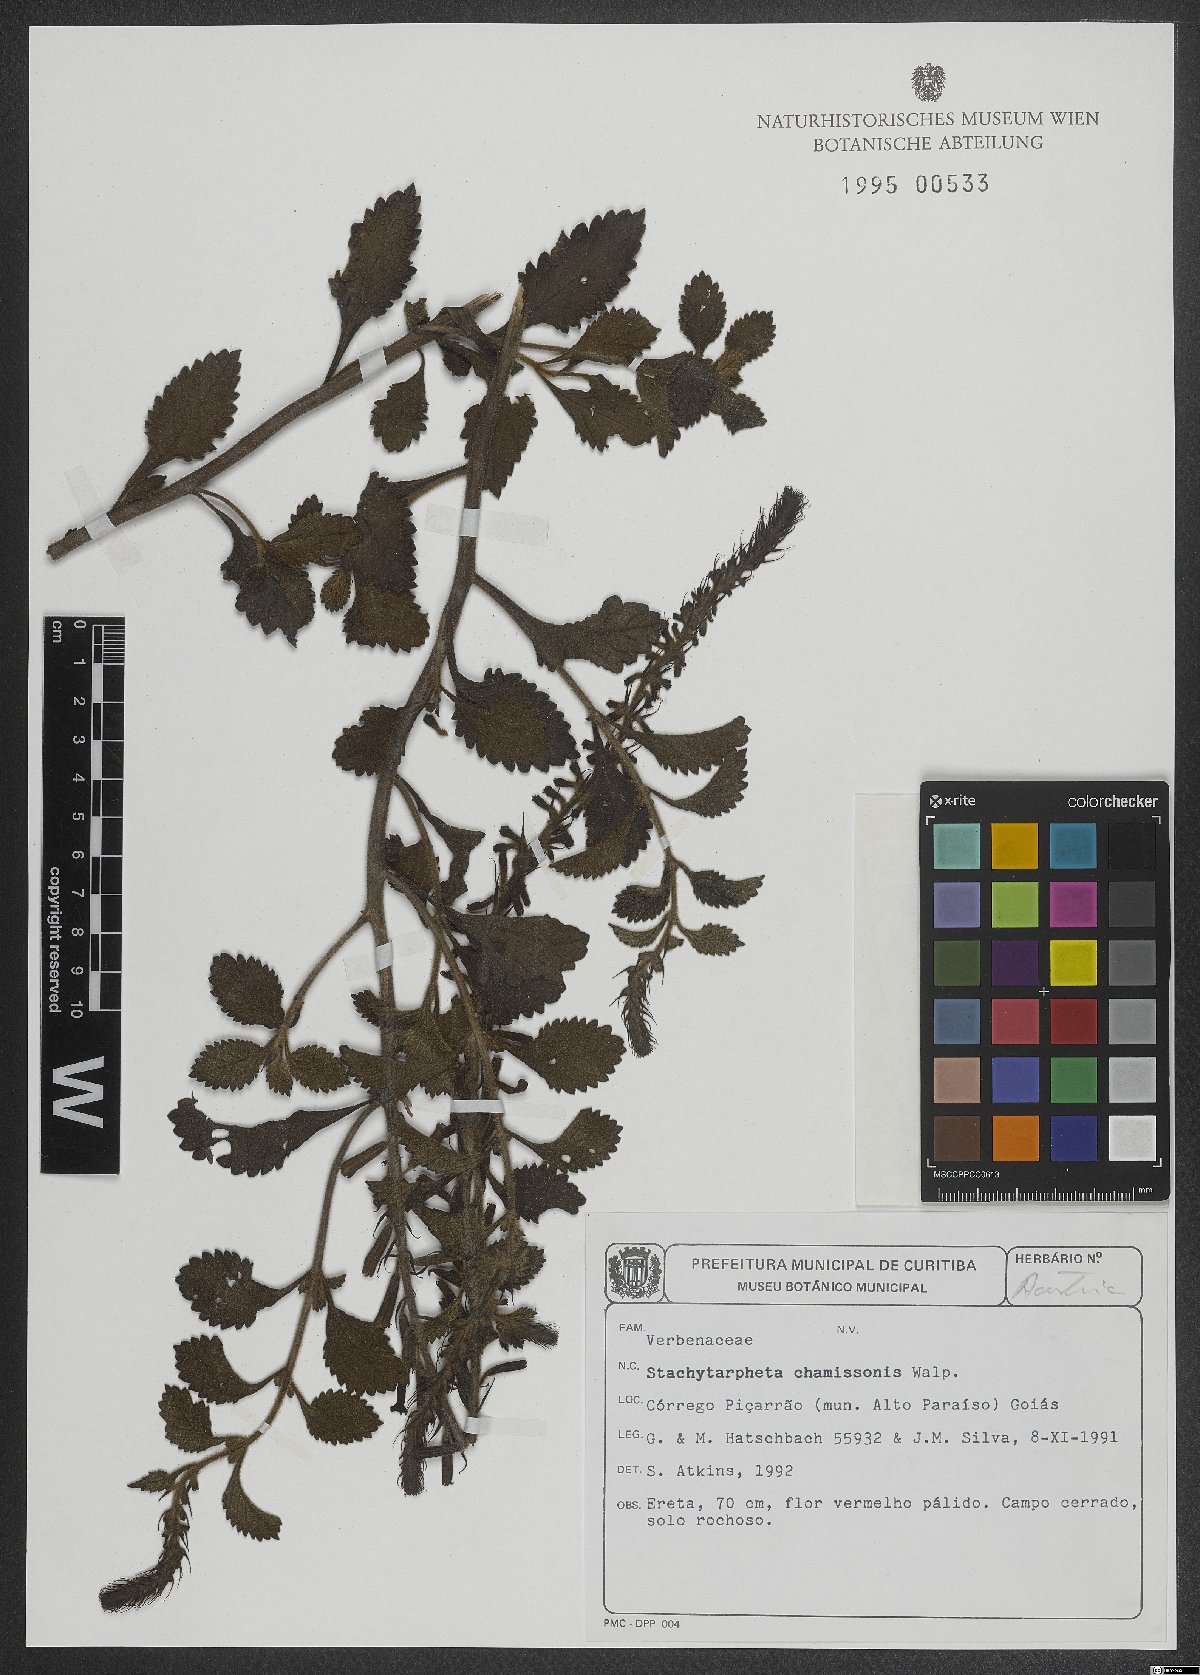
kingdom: Plantae
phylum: Tracheophyta
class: Magnoliopsida
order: Lamiales
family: Verbenaceae
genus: Stachytarpheta
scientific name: Stachytarpheta longispicata
